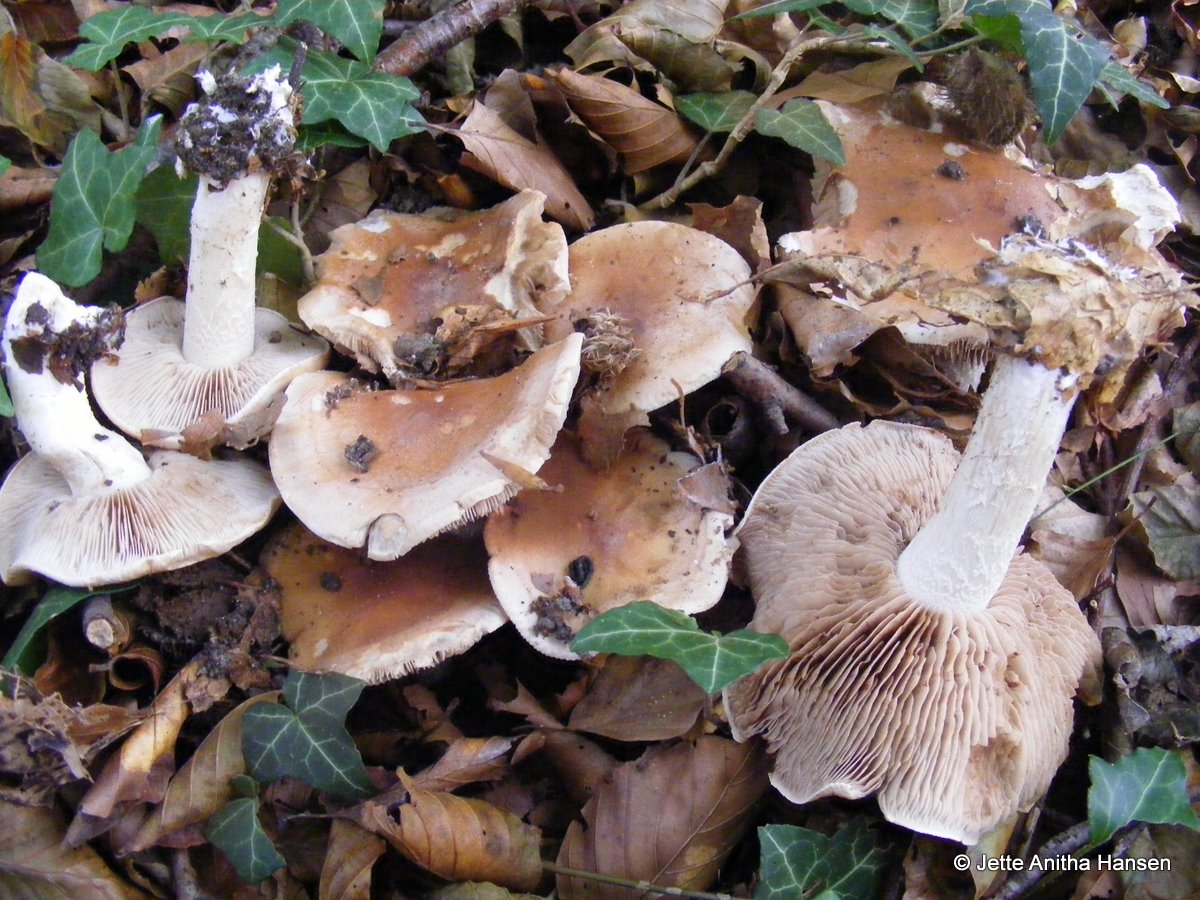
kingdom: Fungi
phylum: Basidiomycota
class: Agaricomycetes
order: Agaricales
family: Hymenogastraceae
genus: Hebeloma
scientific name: Hebeloma sinapizans
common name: ræddike-tåreblad
